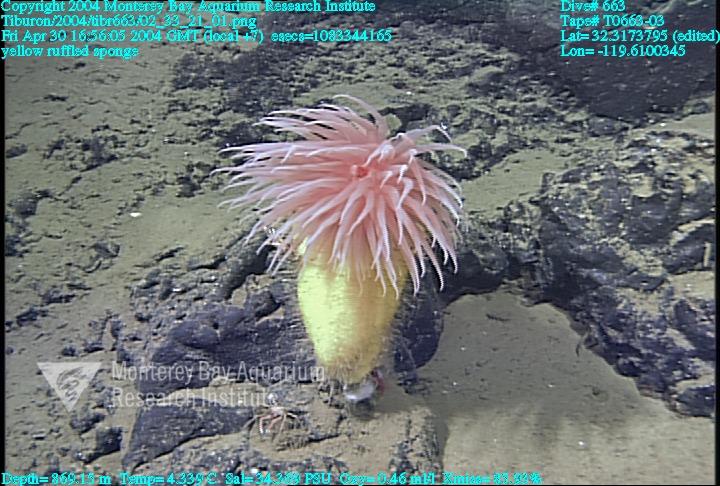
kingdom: Animalia
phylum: Porifera
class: Hexactinellida
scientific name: Hexactinellida
